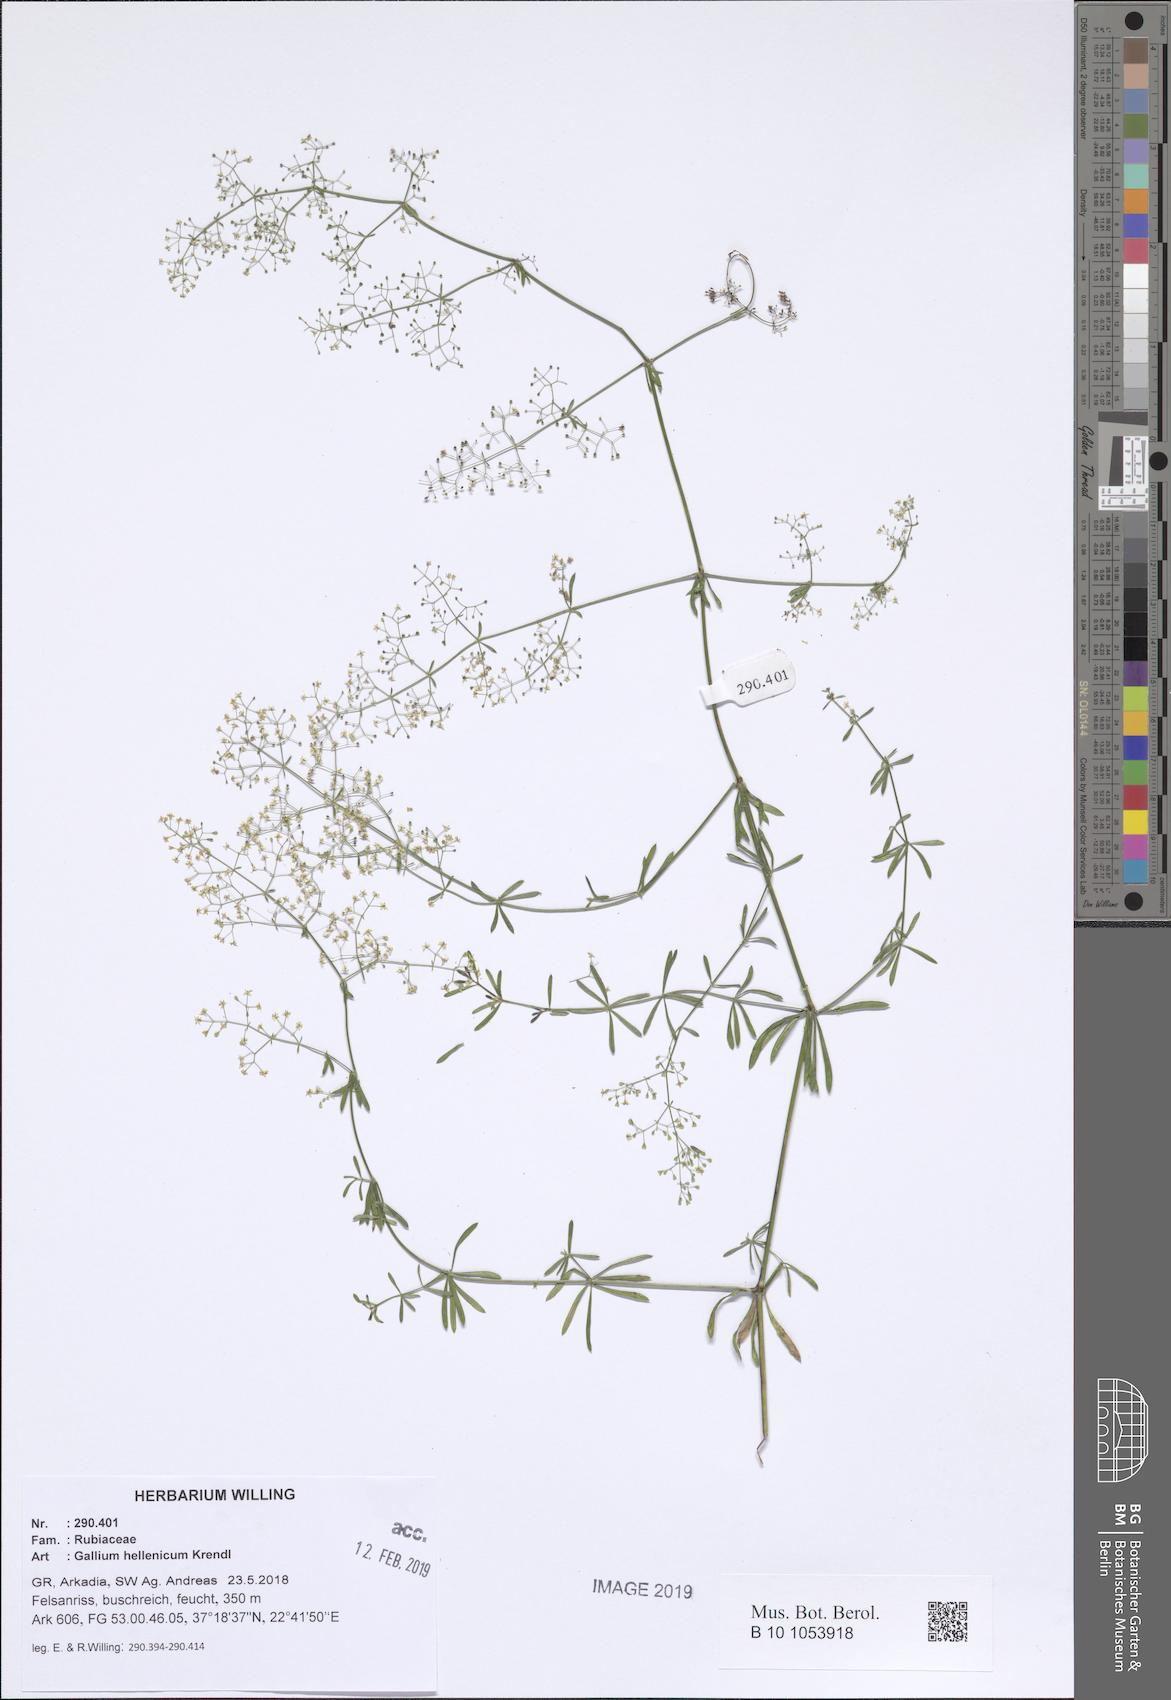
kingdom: Plantae
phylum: Tracheophyta
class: Magnoliopsida
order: Gentianales
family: Rubiaceae
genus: Galium
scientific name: Galium hellenicum
